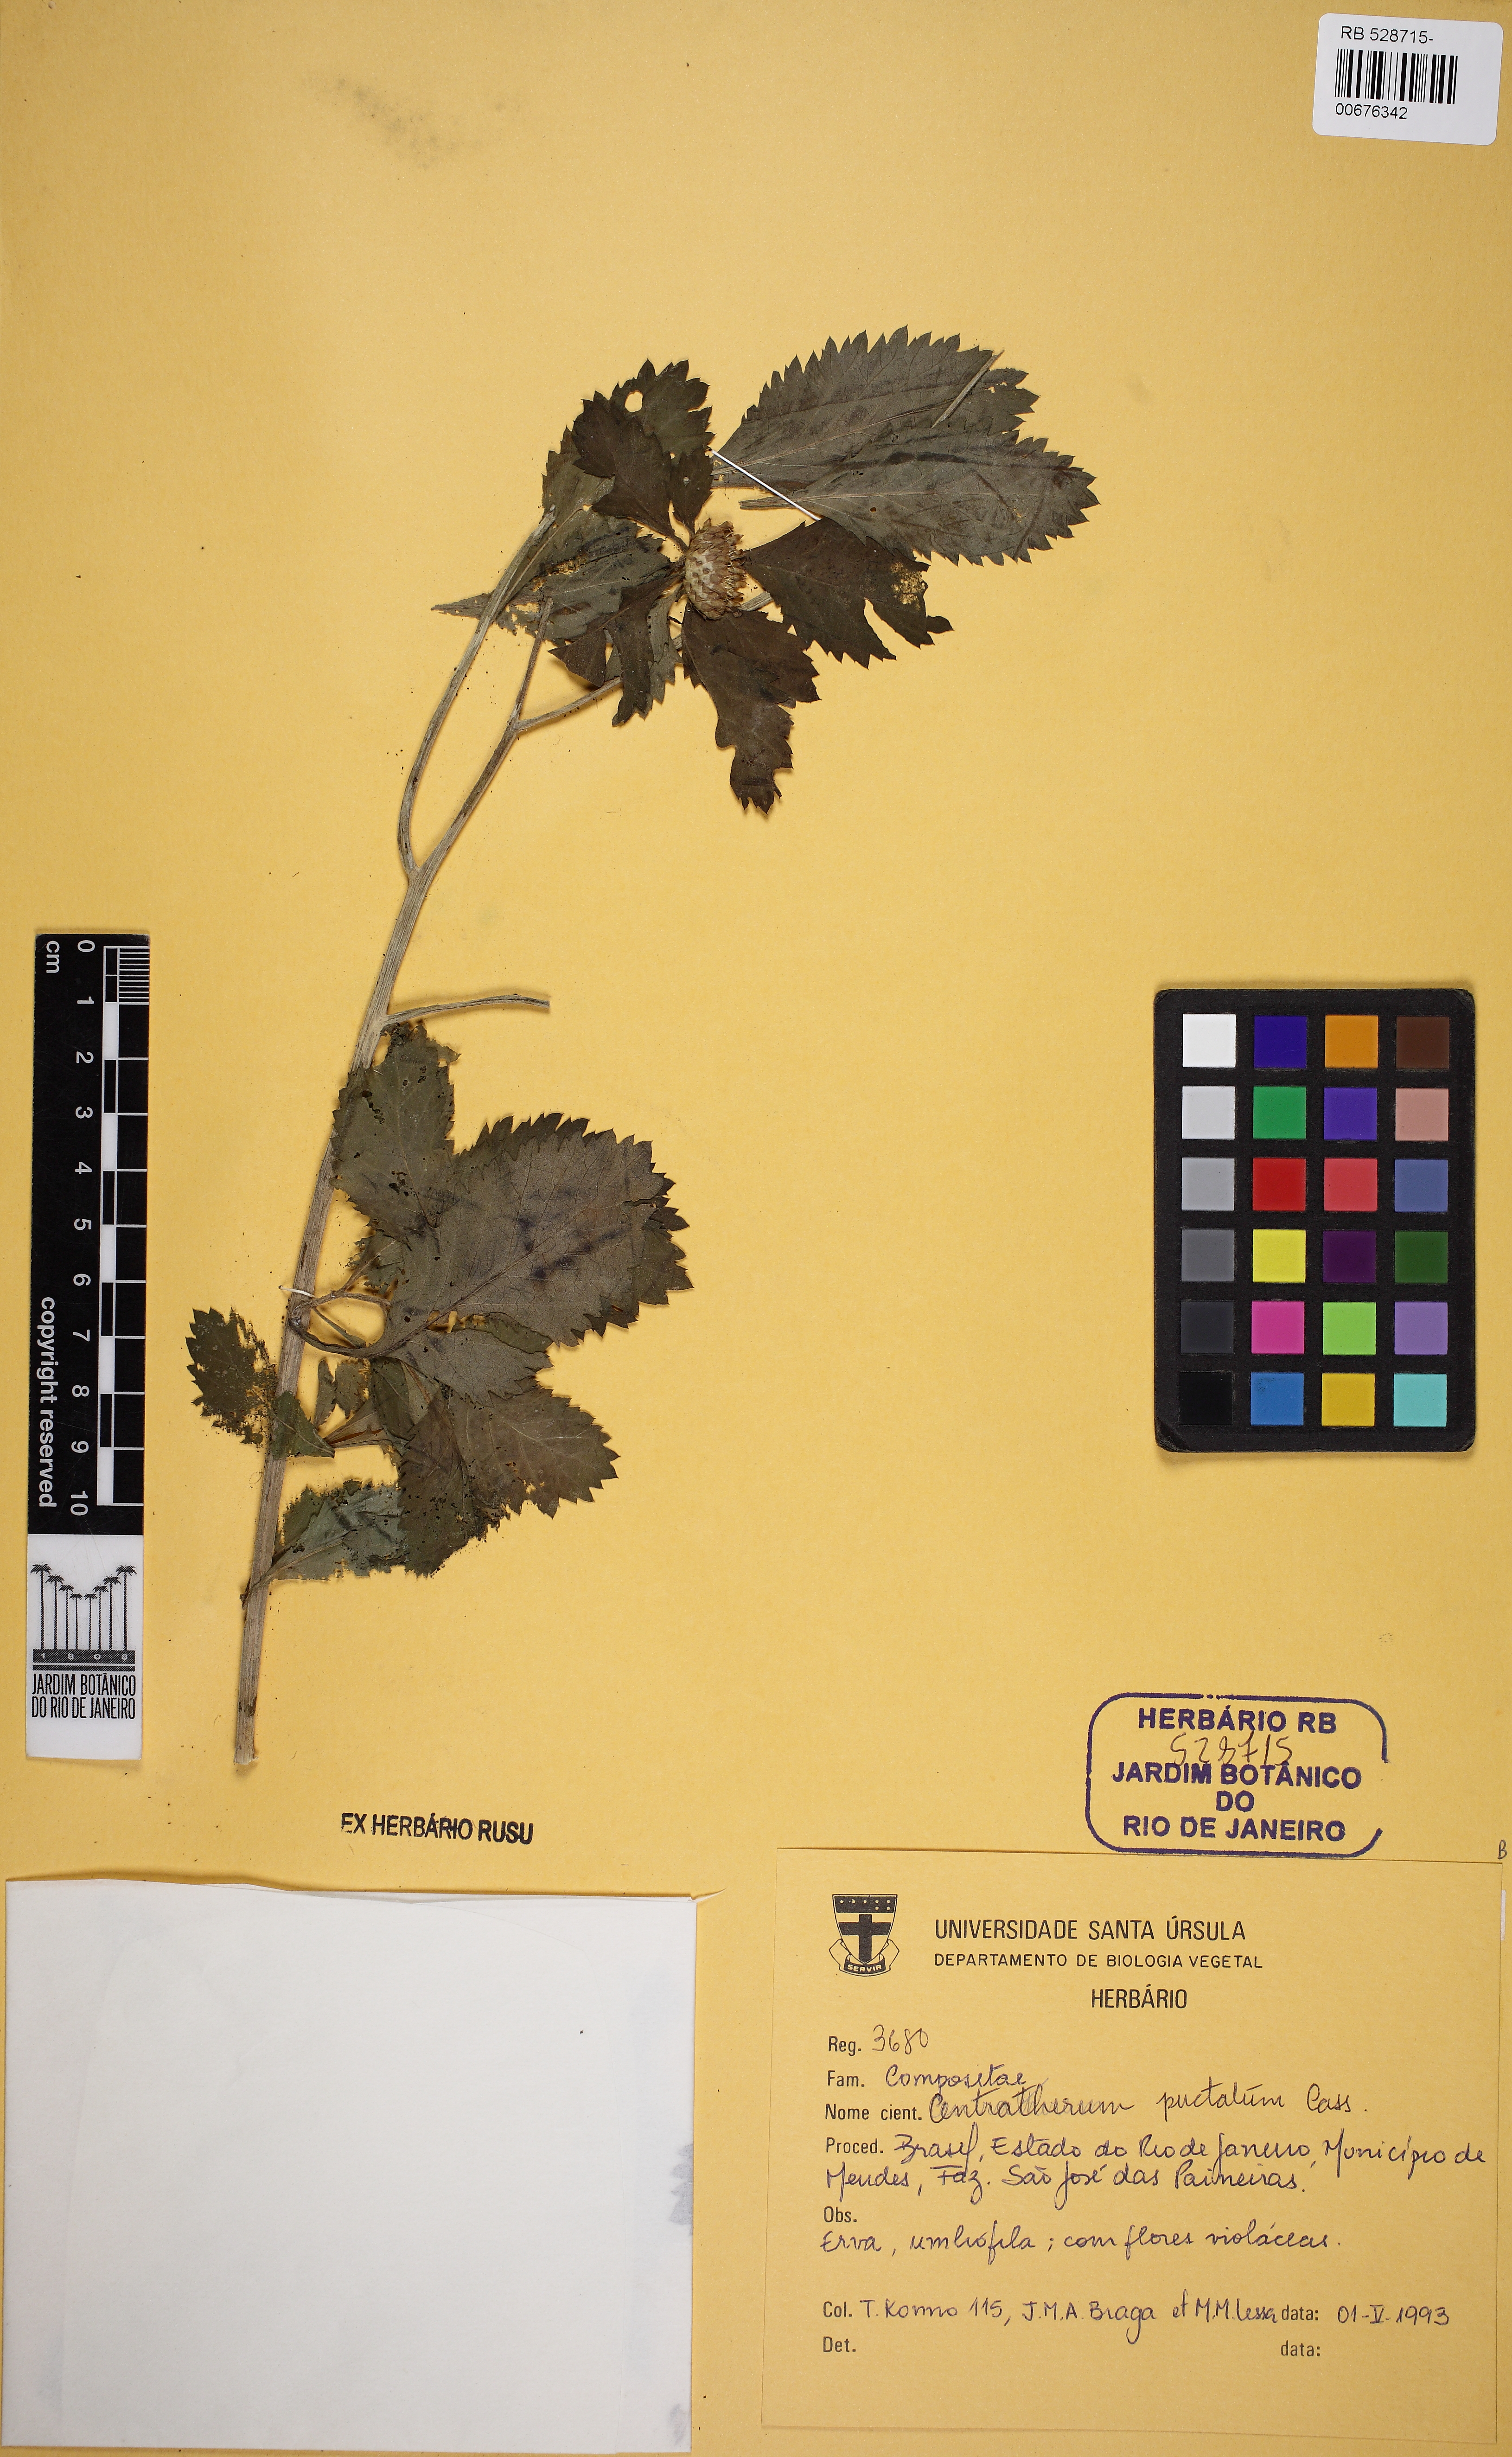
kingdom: Plantae
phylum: Tracheophyta
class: Magnoliopsida
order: Asterales
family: Asteraceae
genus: Centratherum
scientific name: Centratherum punctatum
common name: Larkdaisy
